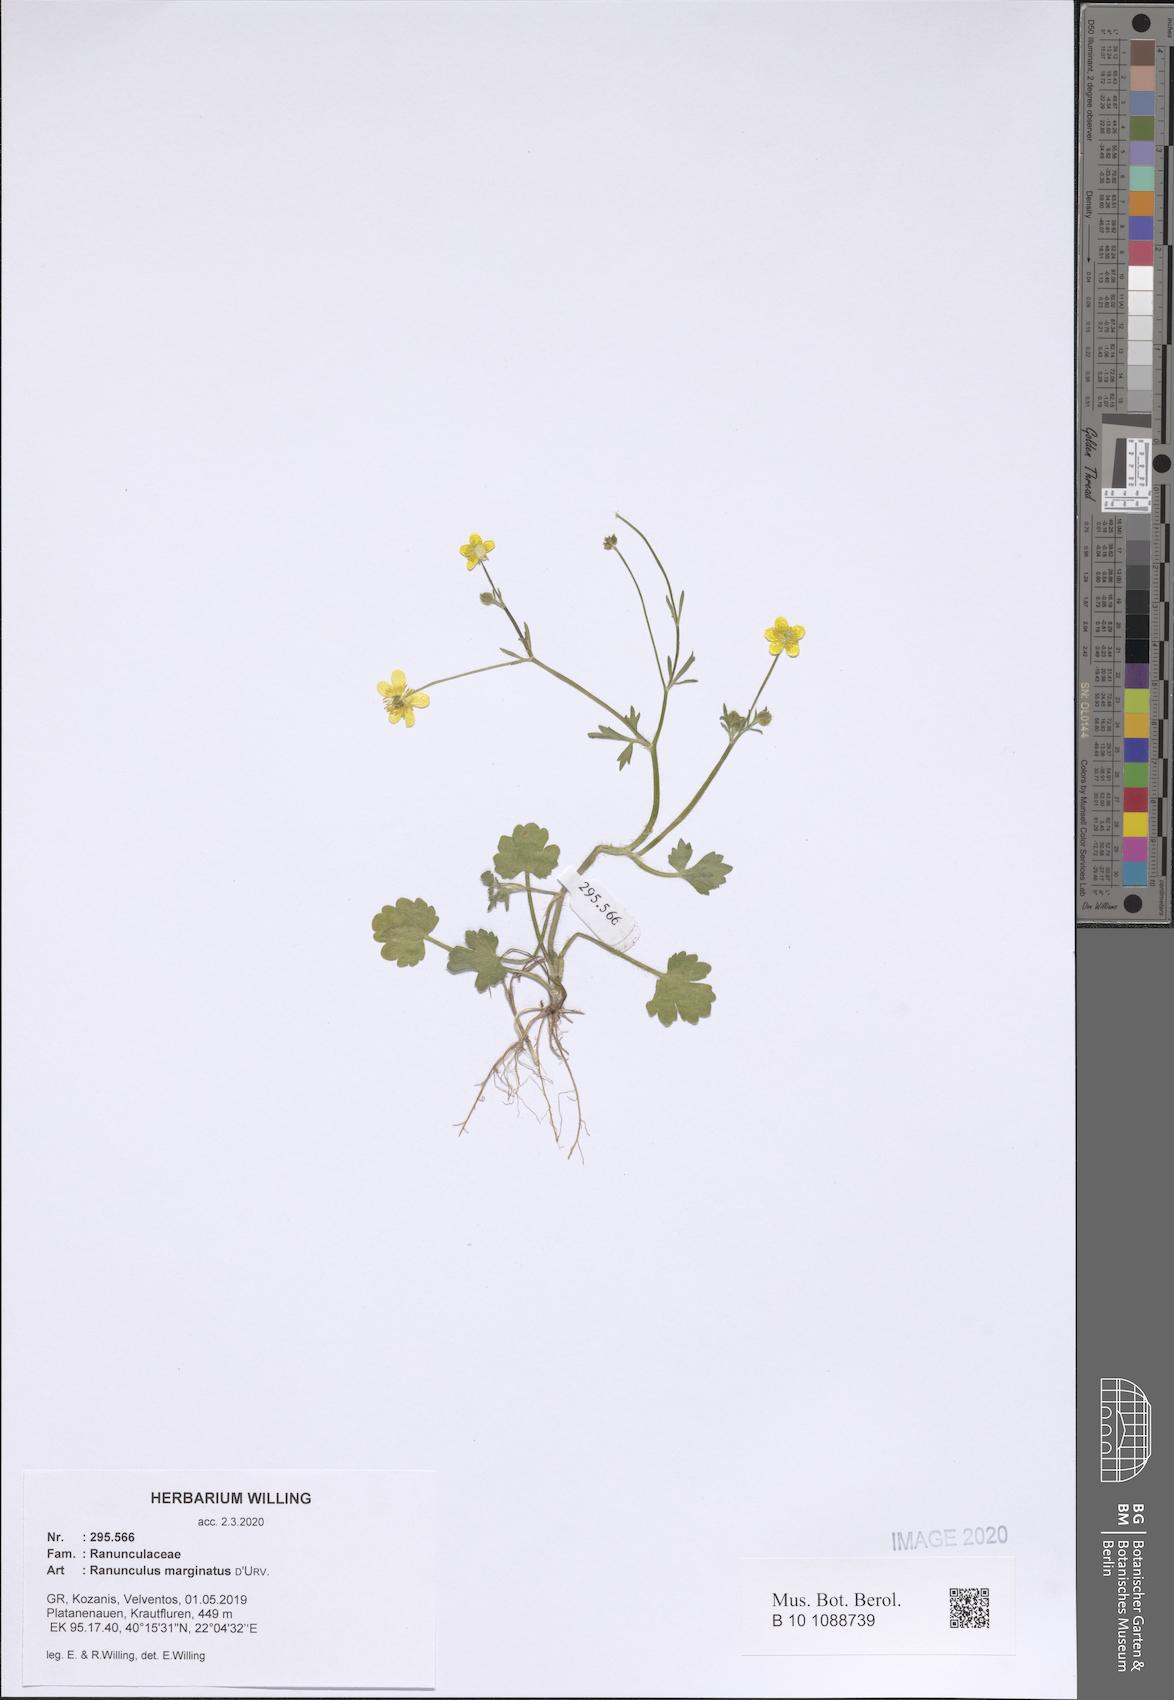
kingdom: Plantae
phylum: Tracheophyta
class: Magnoliopsida
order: Ranunculales
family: Ranunculaceae
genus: Ranunculus
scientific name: Ranunculus marginatus
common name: St. martin's buttercup
